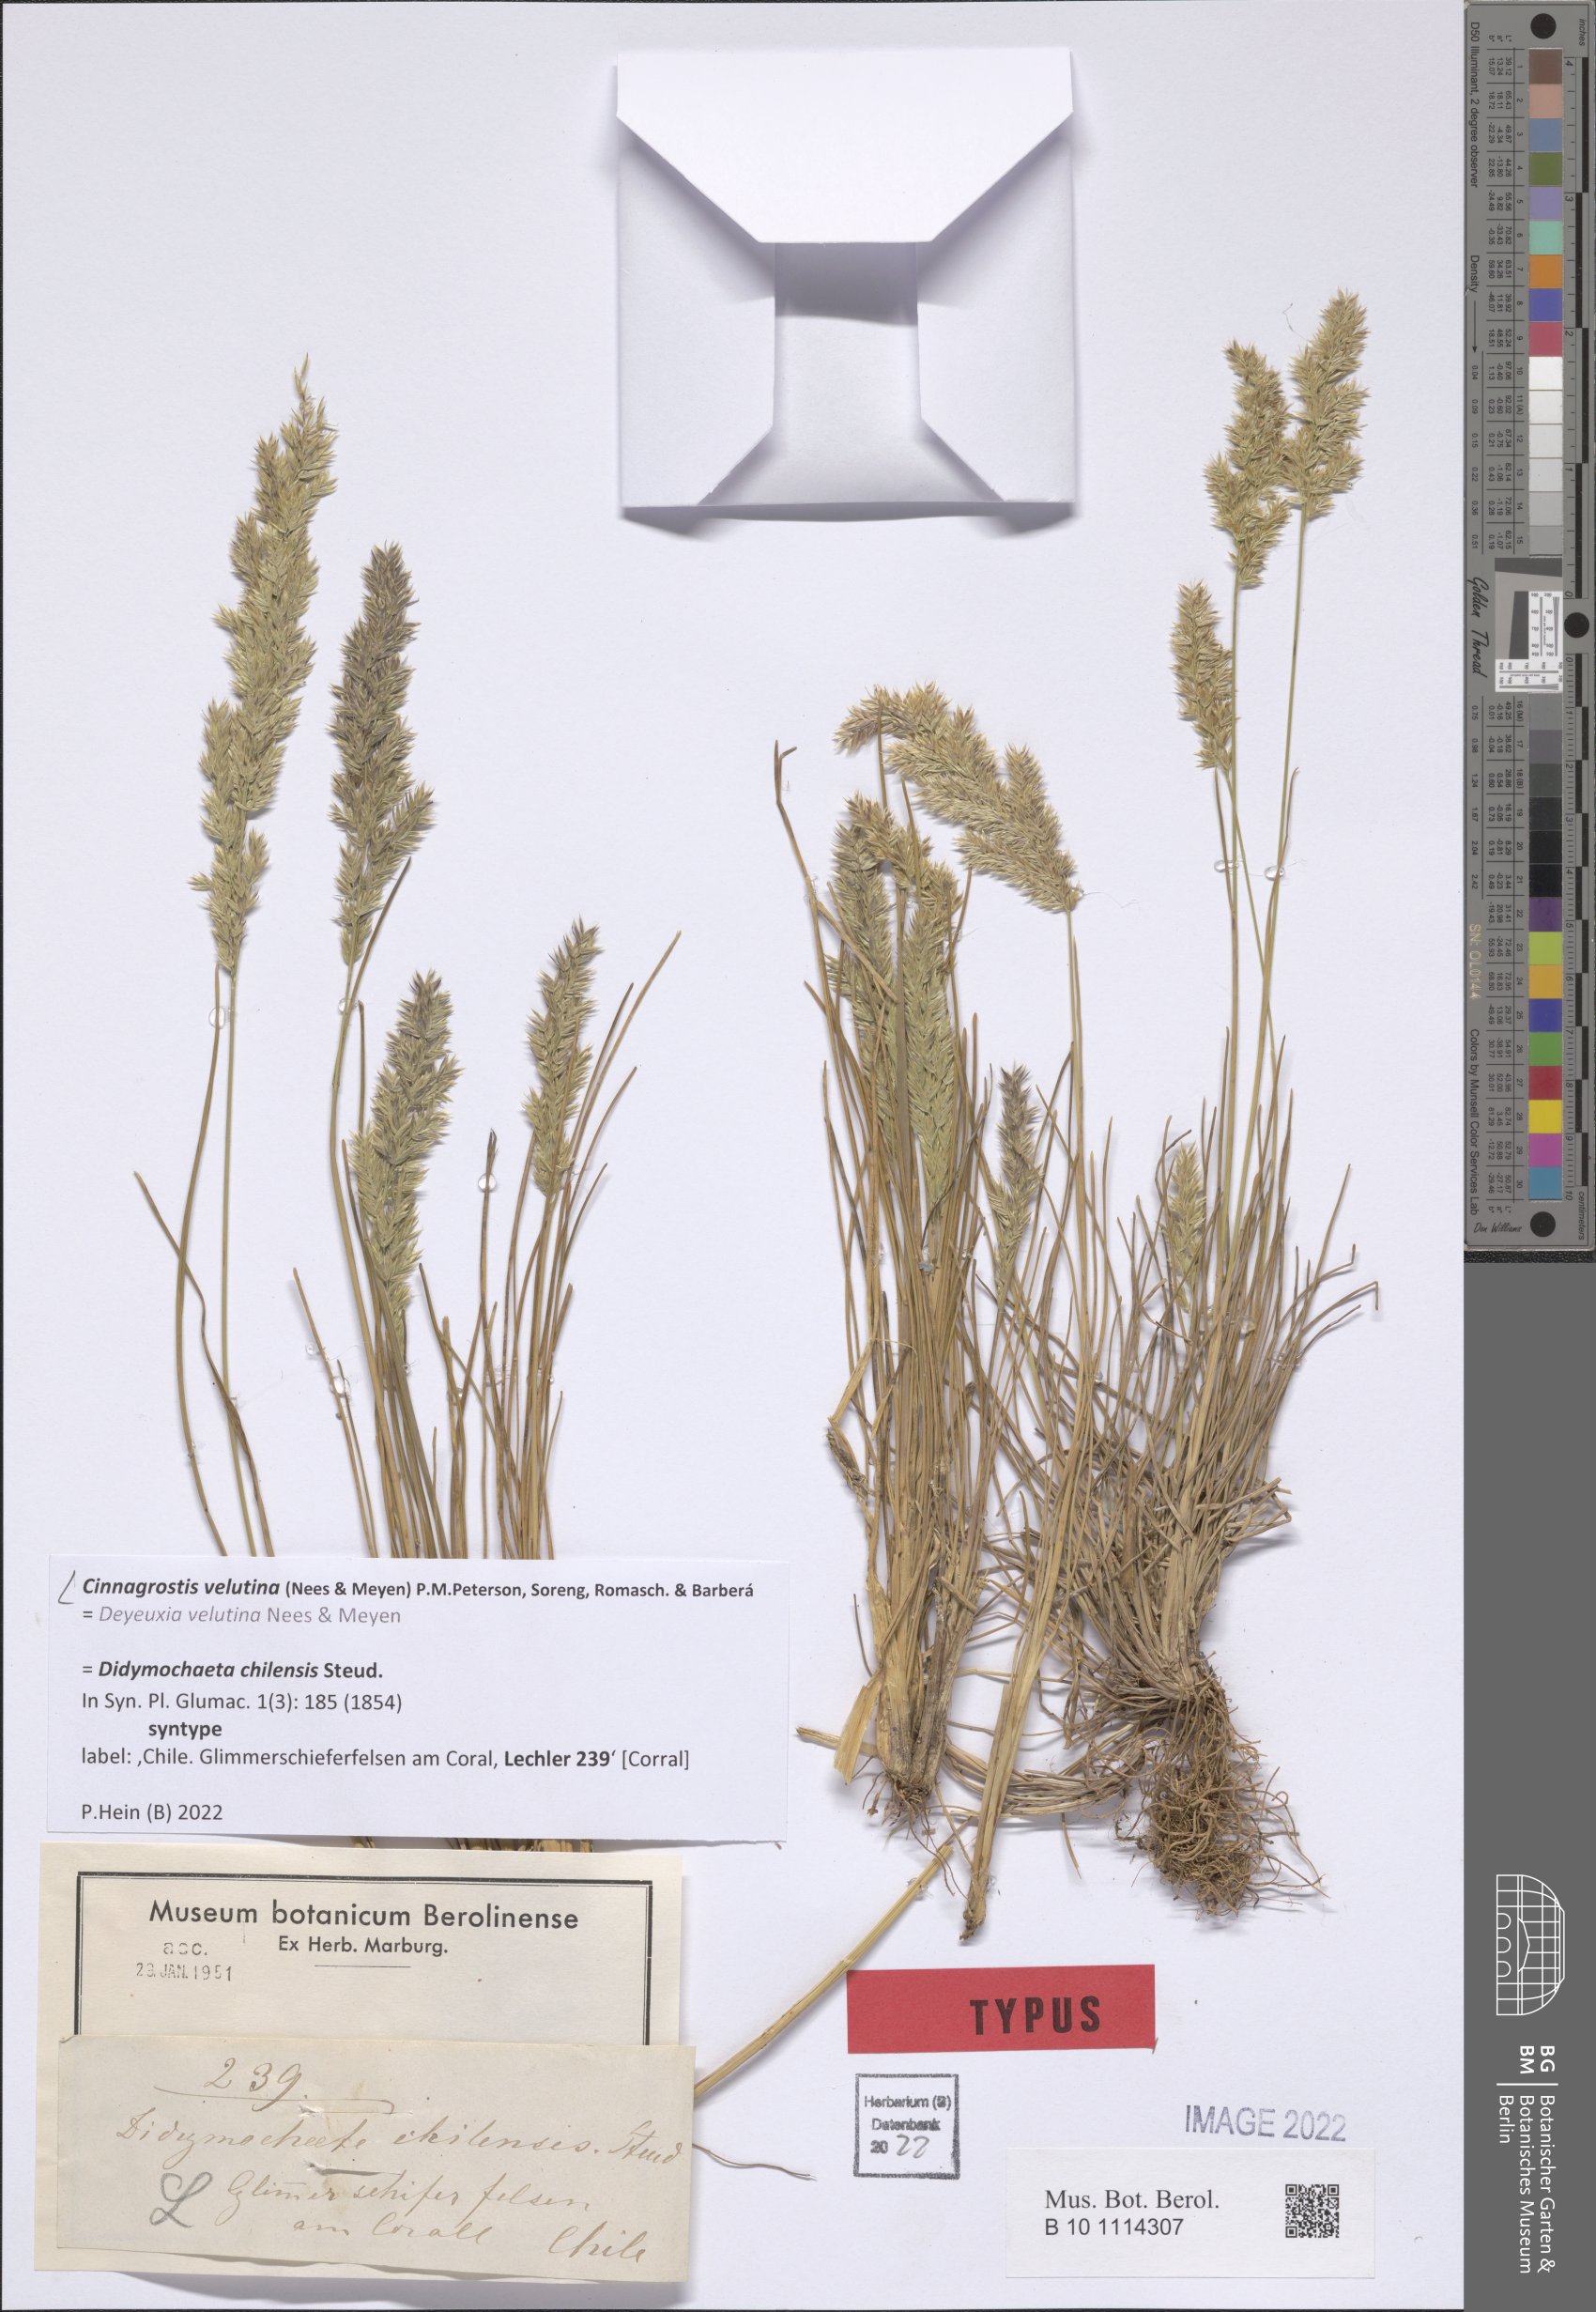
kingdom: Plantae
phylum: Tracheophyta
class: Liliopsida
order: Poales
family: Poaceae
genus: Cinnagrostis
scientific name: Cinnagrostis velutina
